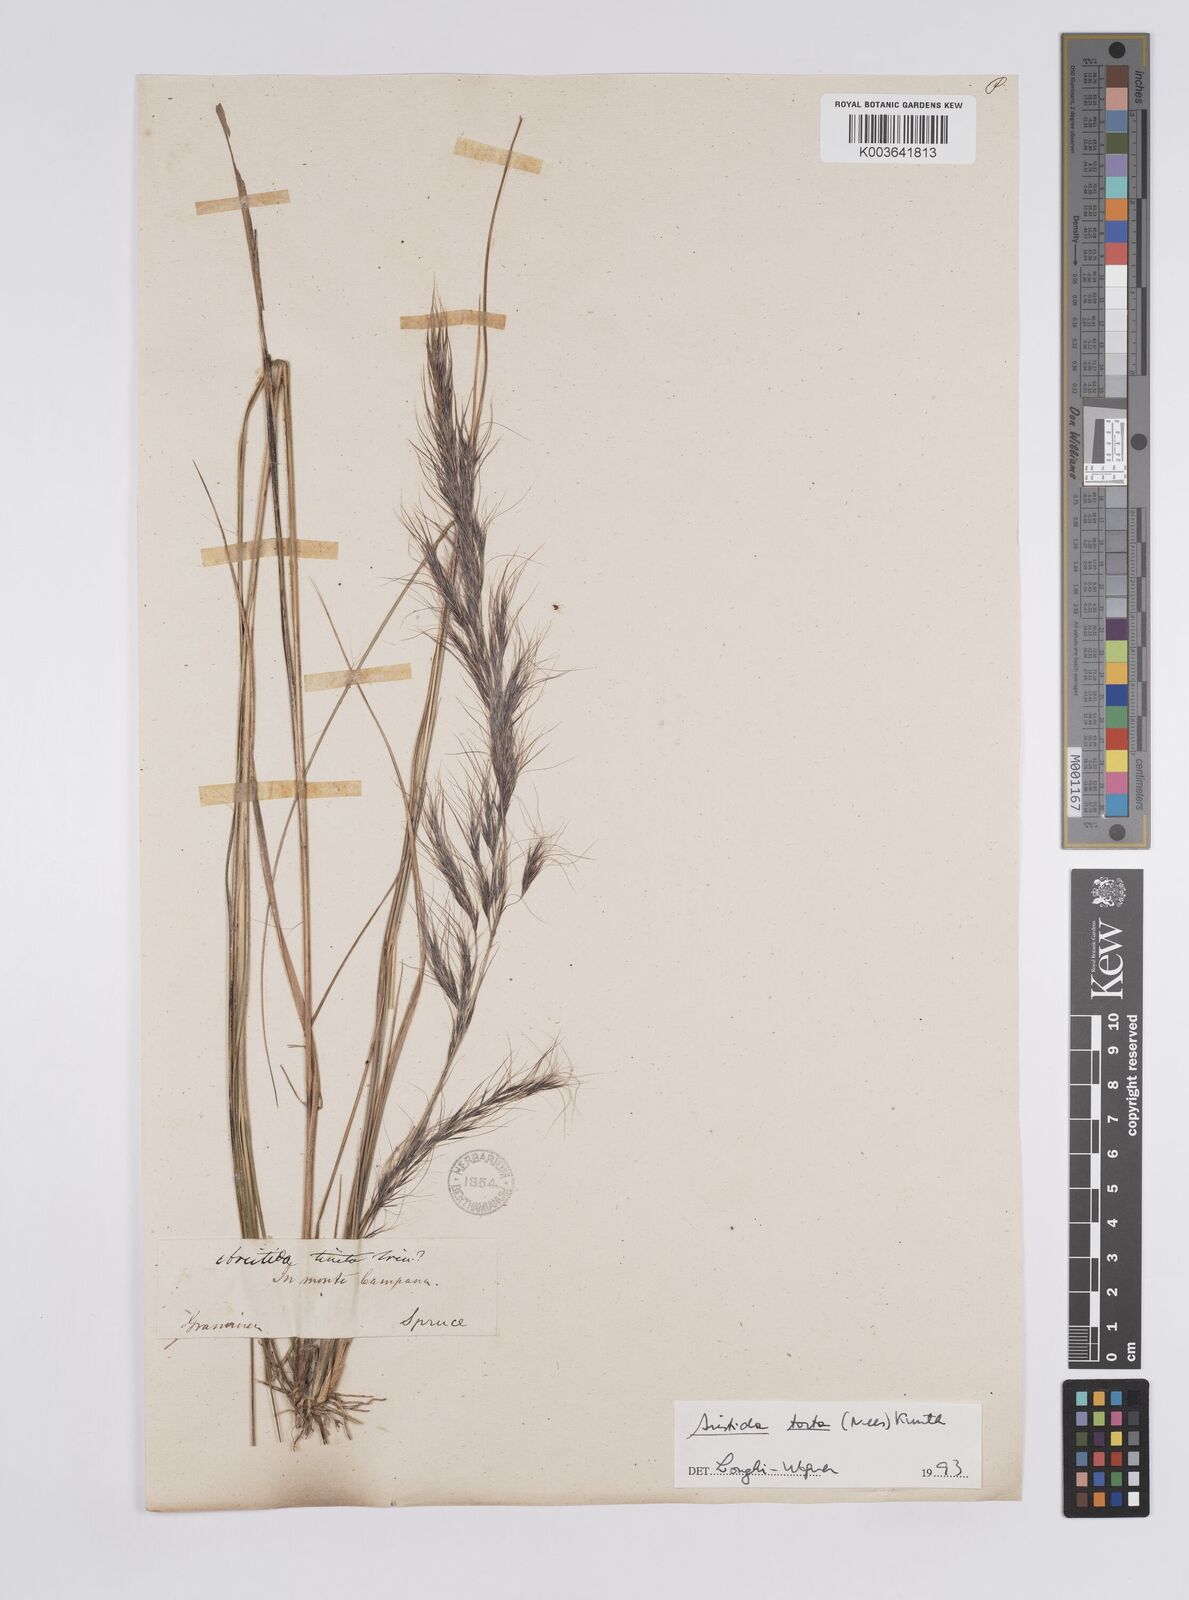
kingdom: Plantae
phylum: Tracheophyta
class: Liliopsida
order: Poales
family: Poaceae
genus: Aristida
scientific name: Aristida torta
